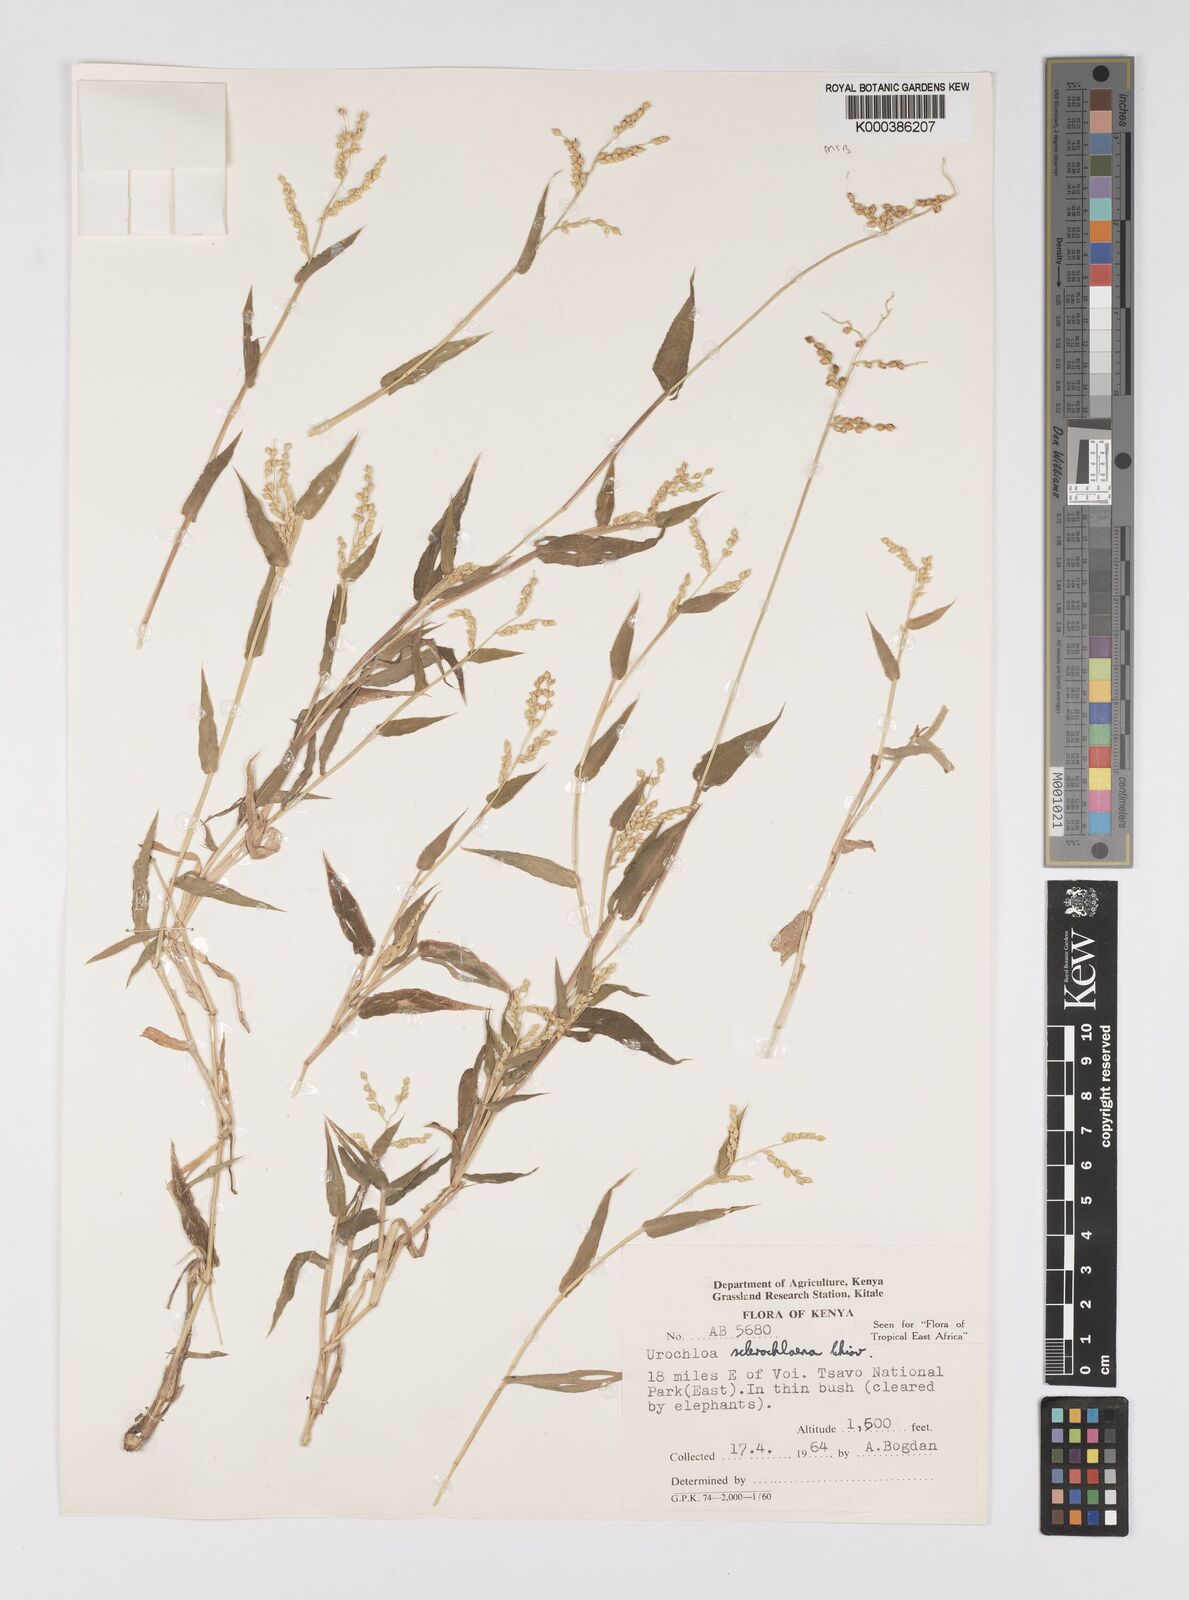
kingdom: Plantae
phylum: Tracheophyta
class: Liliopsida
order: Poales
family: Poaceae
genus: Urochloa
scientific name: Urochloa sclerochlaena
